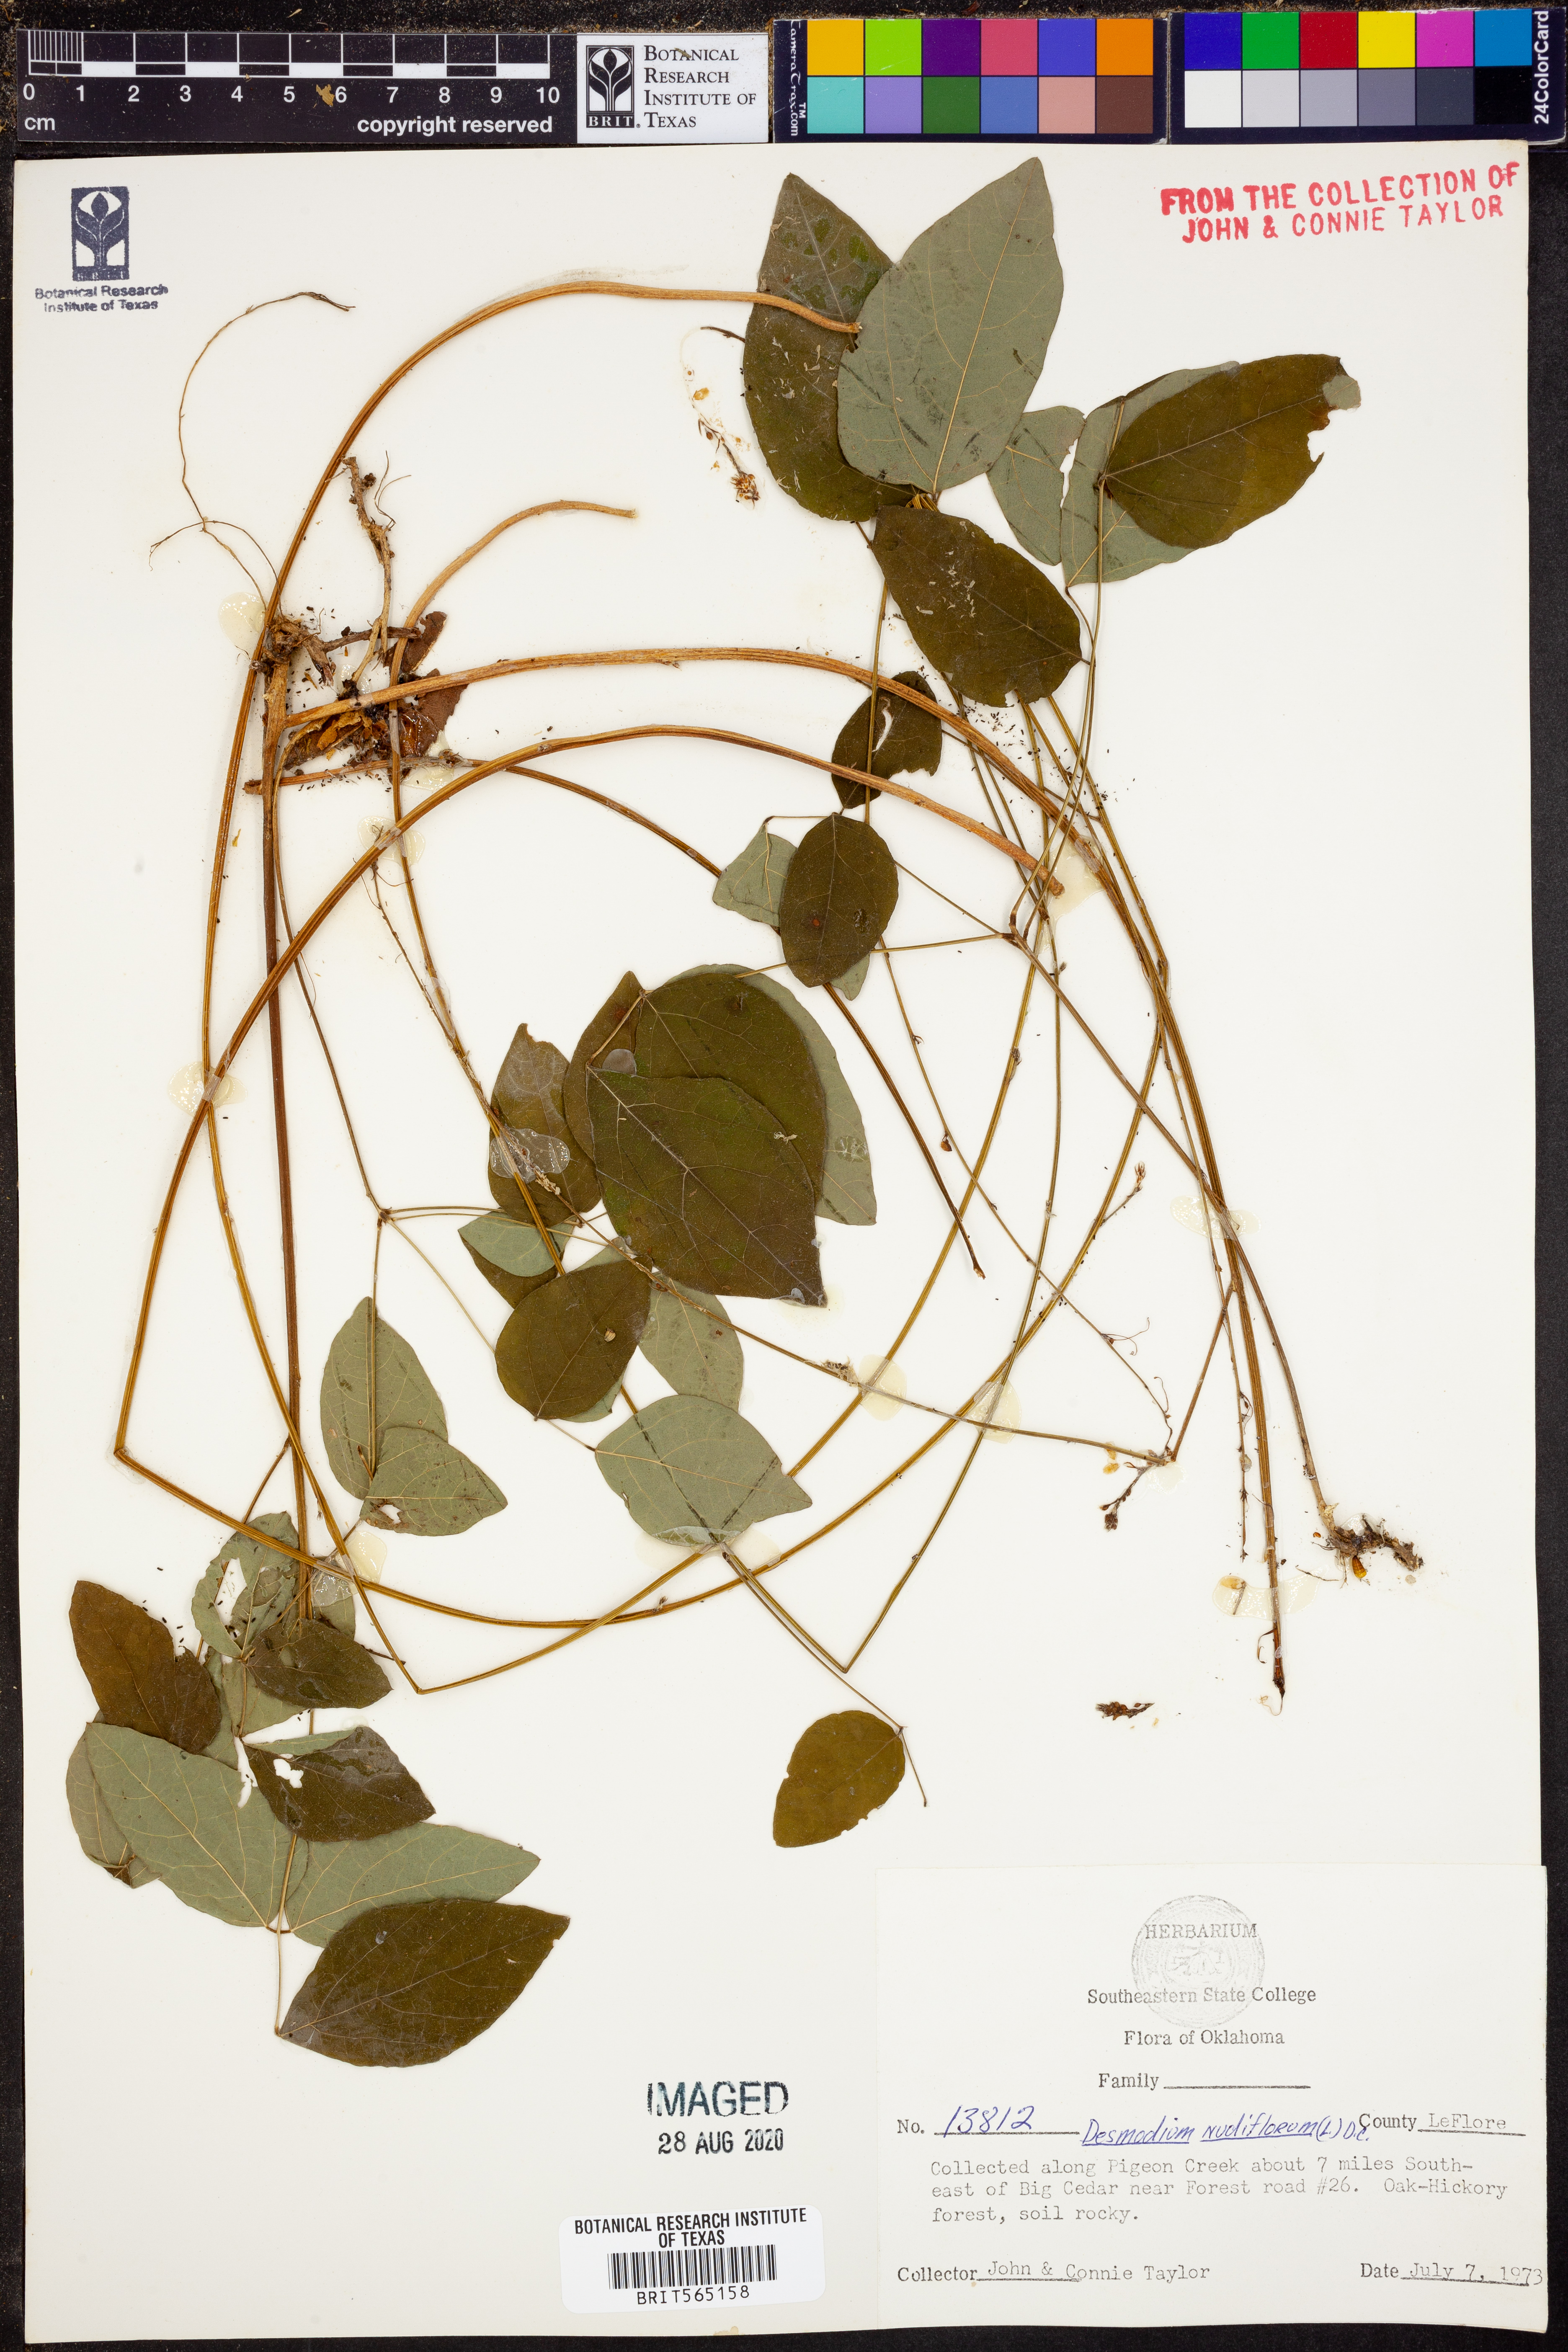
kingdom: Plantae
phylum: Tracheophyta
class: Magnoliopsida
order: Fabales
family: Fabaceae
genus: Hylodesmum
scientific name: Hylodesmum nudiflorum
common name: Bare-stemmed tick-trefoil
